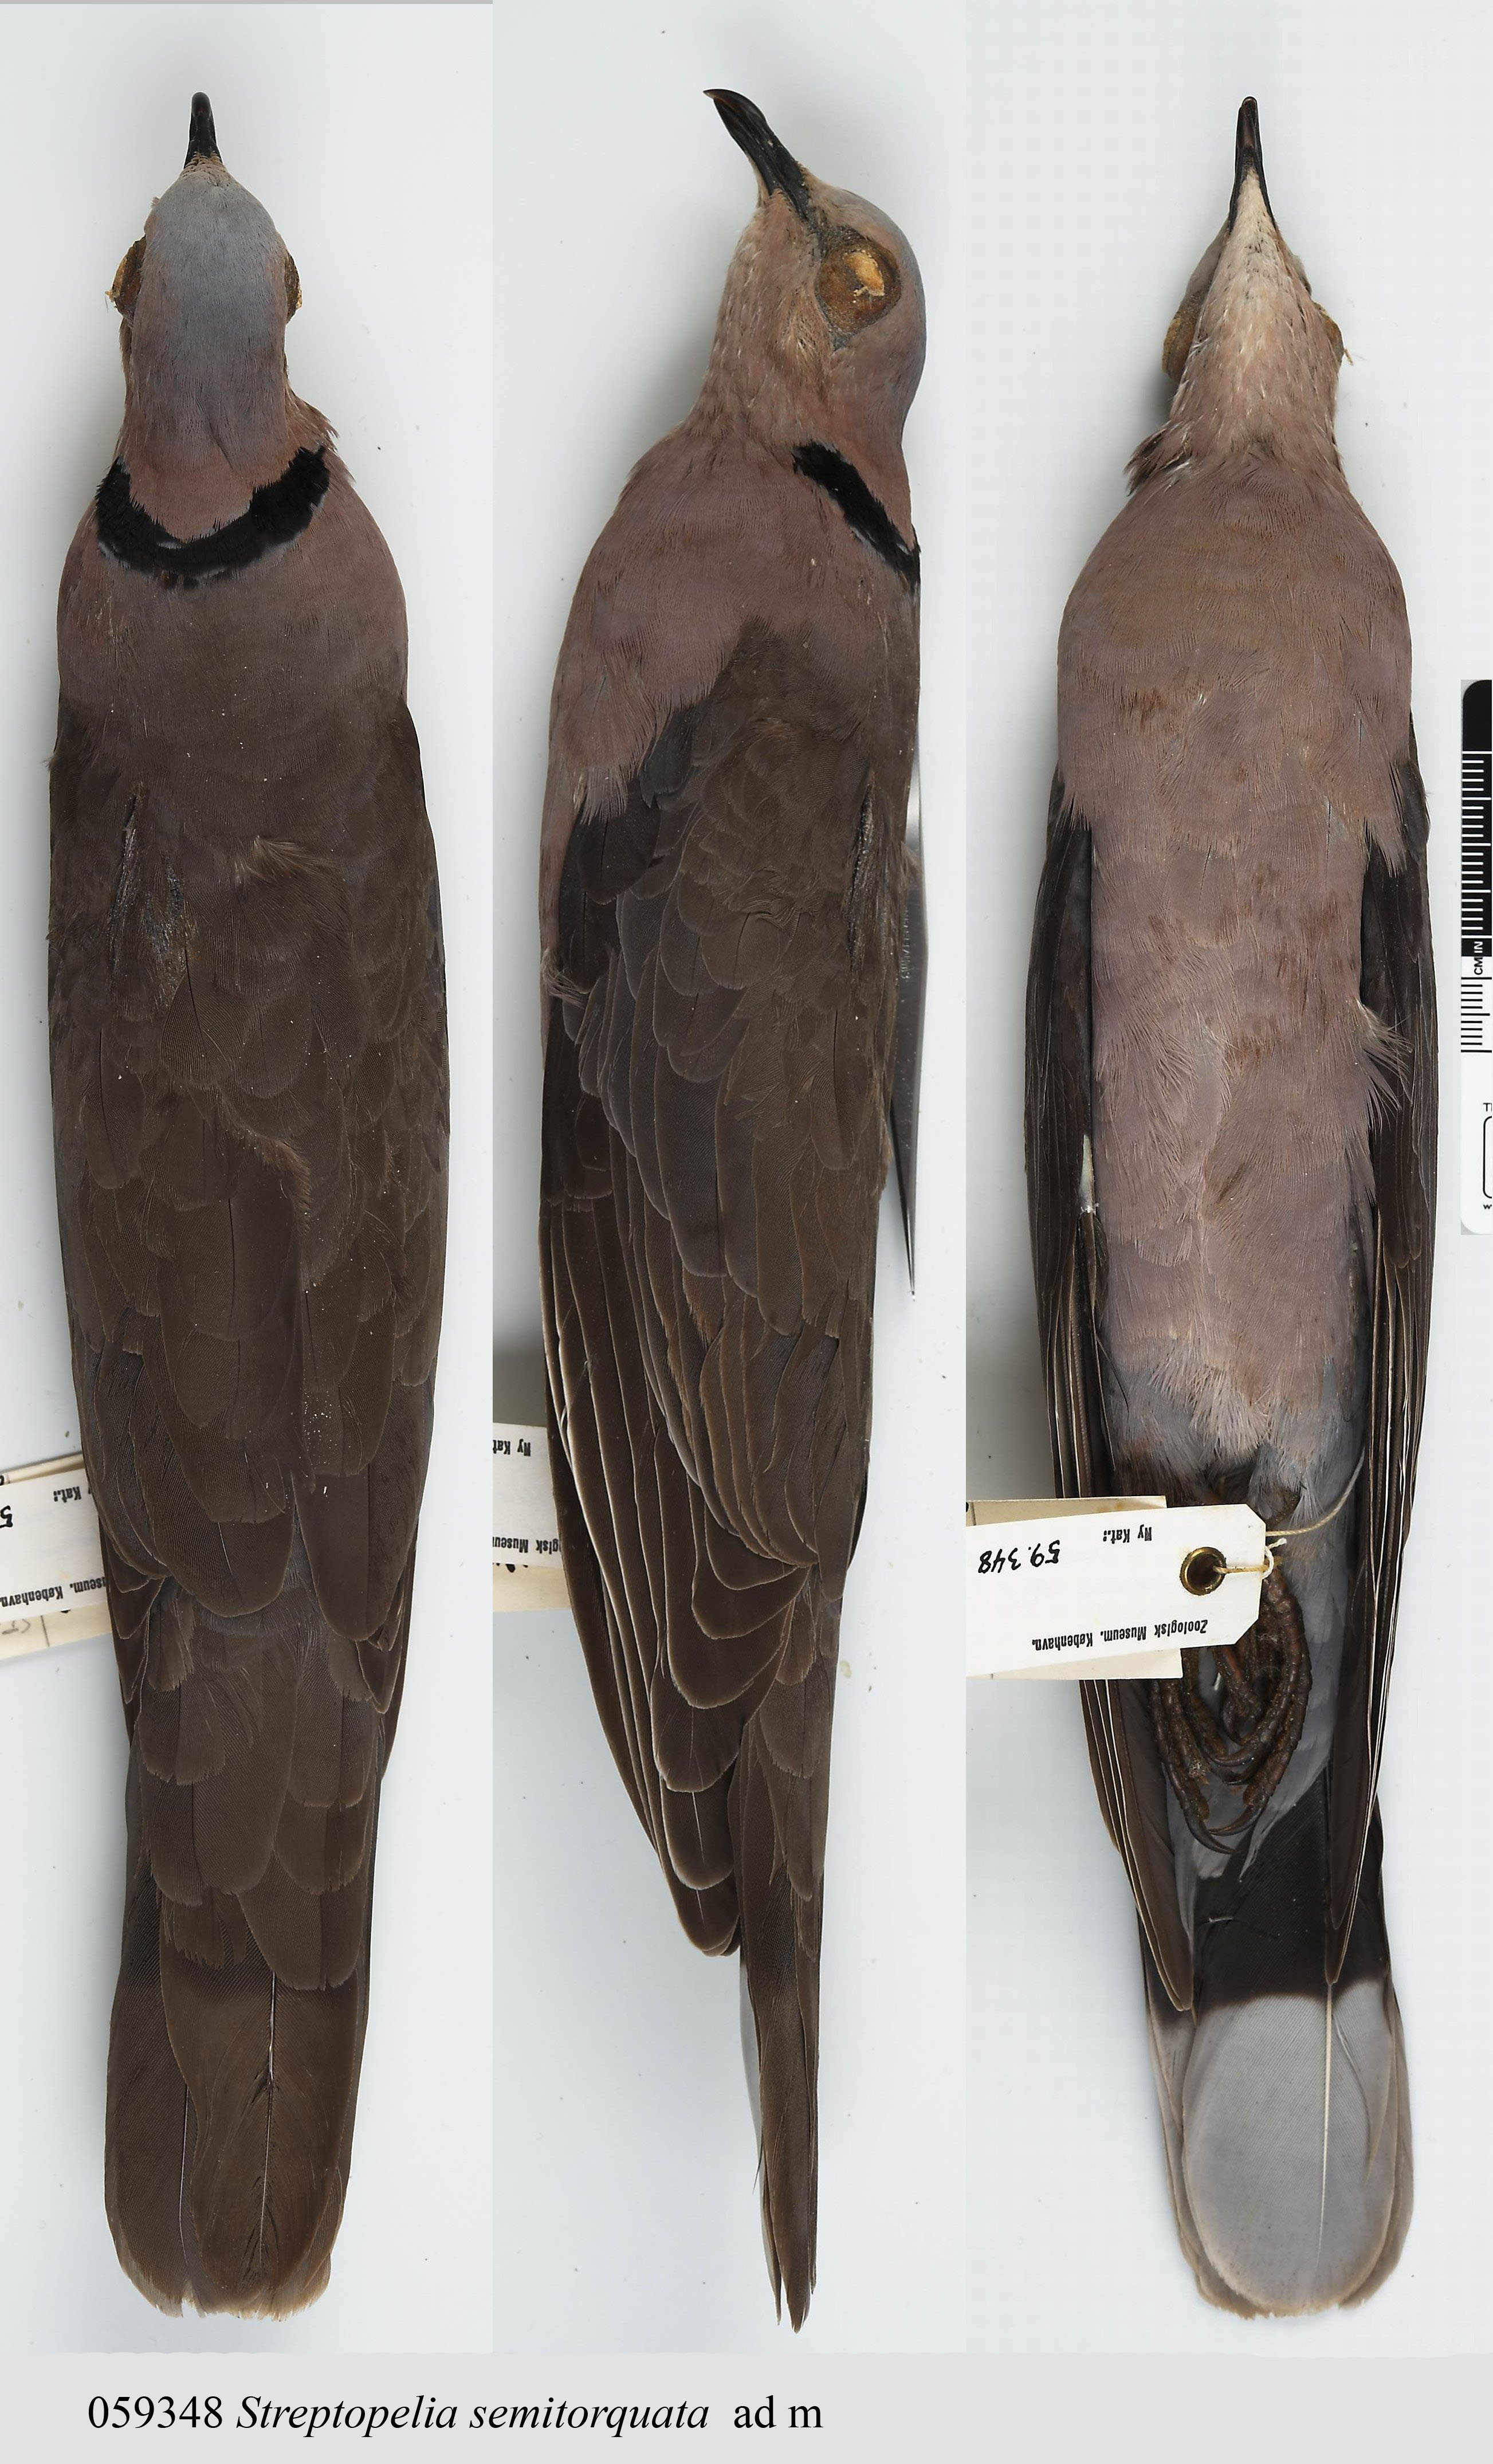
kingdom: Animalia
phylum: Chordata
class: Aves
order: Columbiformes
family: Columbidae
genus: Streptopelia
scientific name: Streptopelia semitorquata
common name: Red-eyed dove
